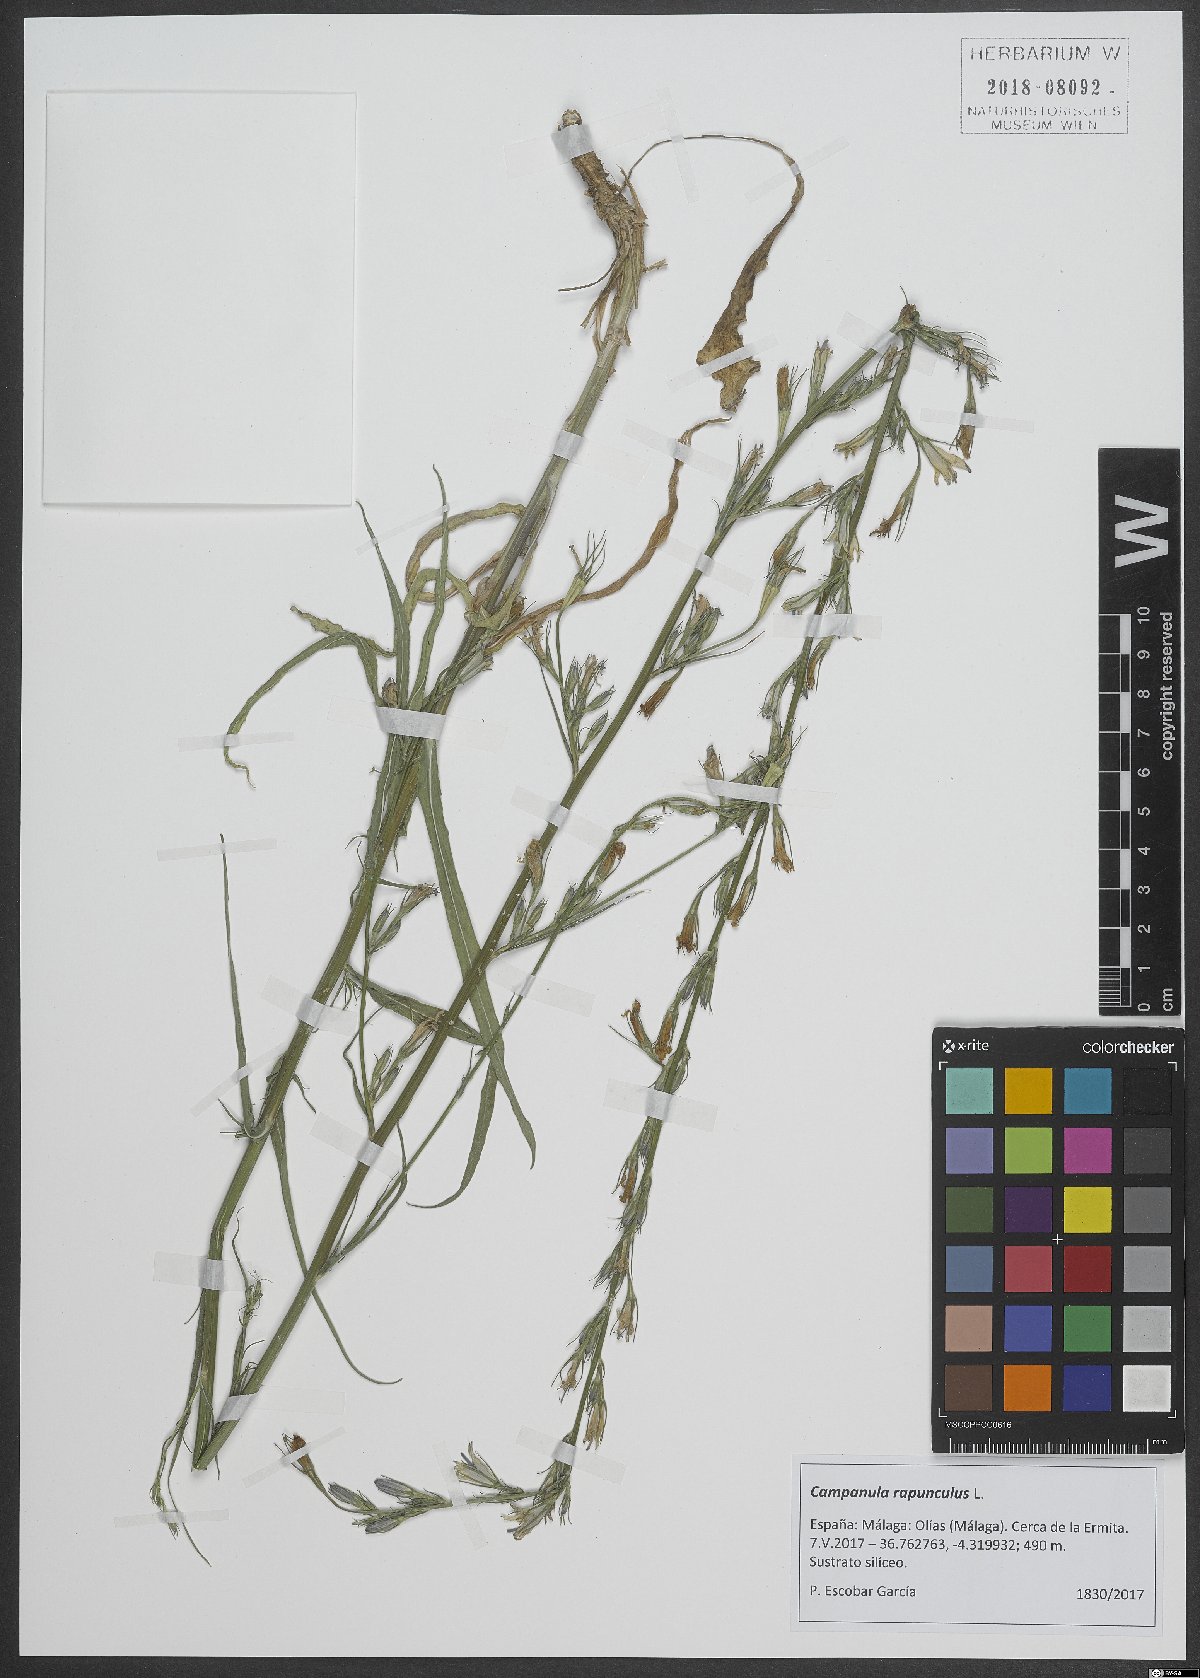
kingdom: Plantae
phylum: Tracheophyta
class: Magnoliopsida
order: Asterales
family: Campanulaceae
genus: Campanula
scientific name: Campanula rapunculus
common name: Rampion bellflower
